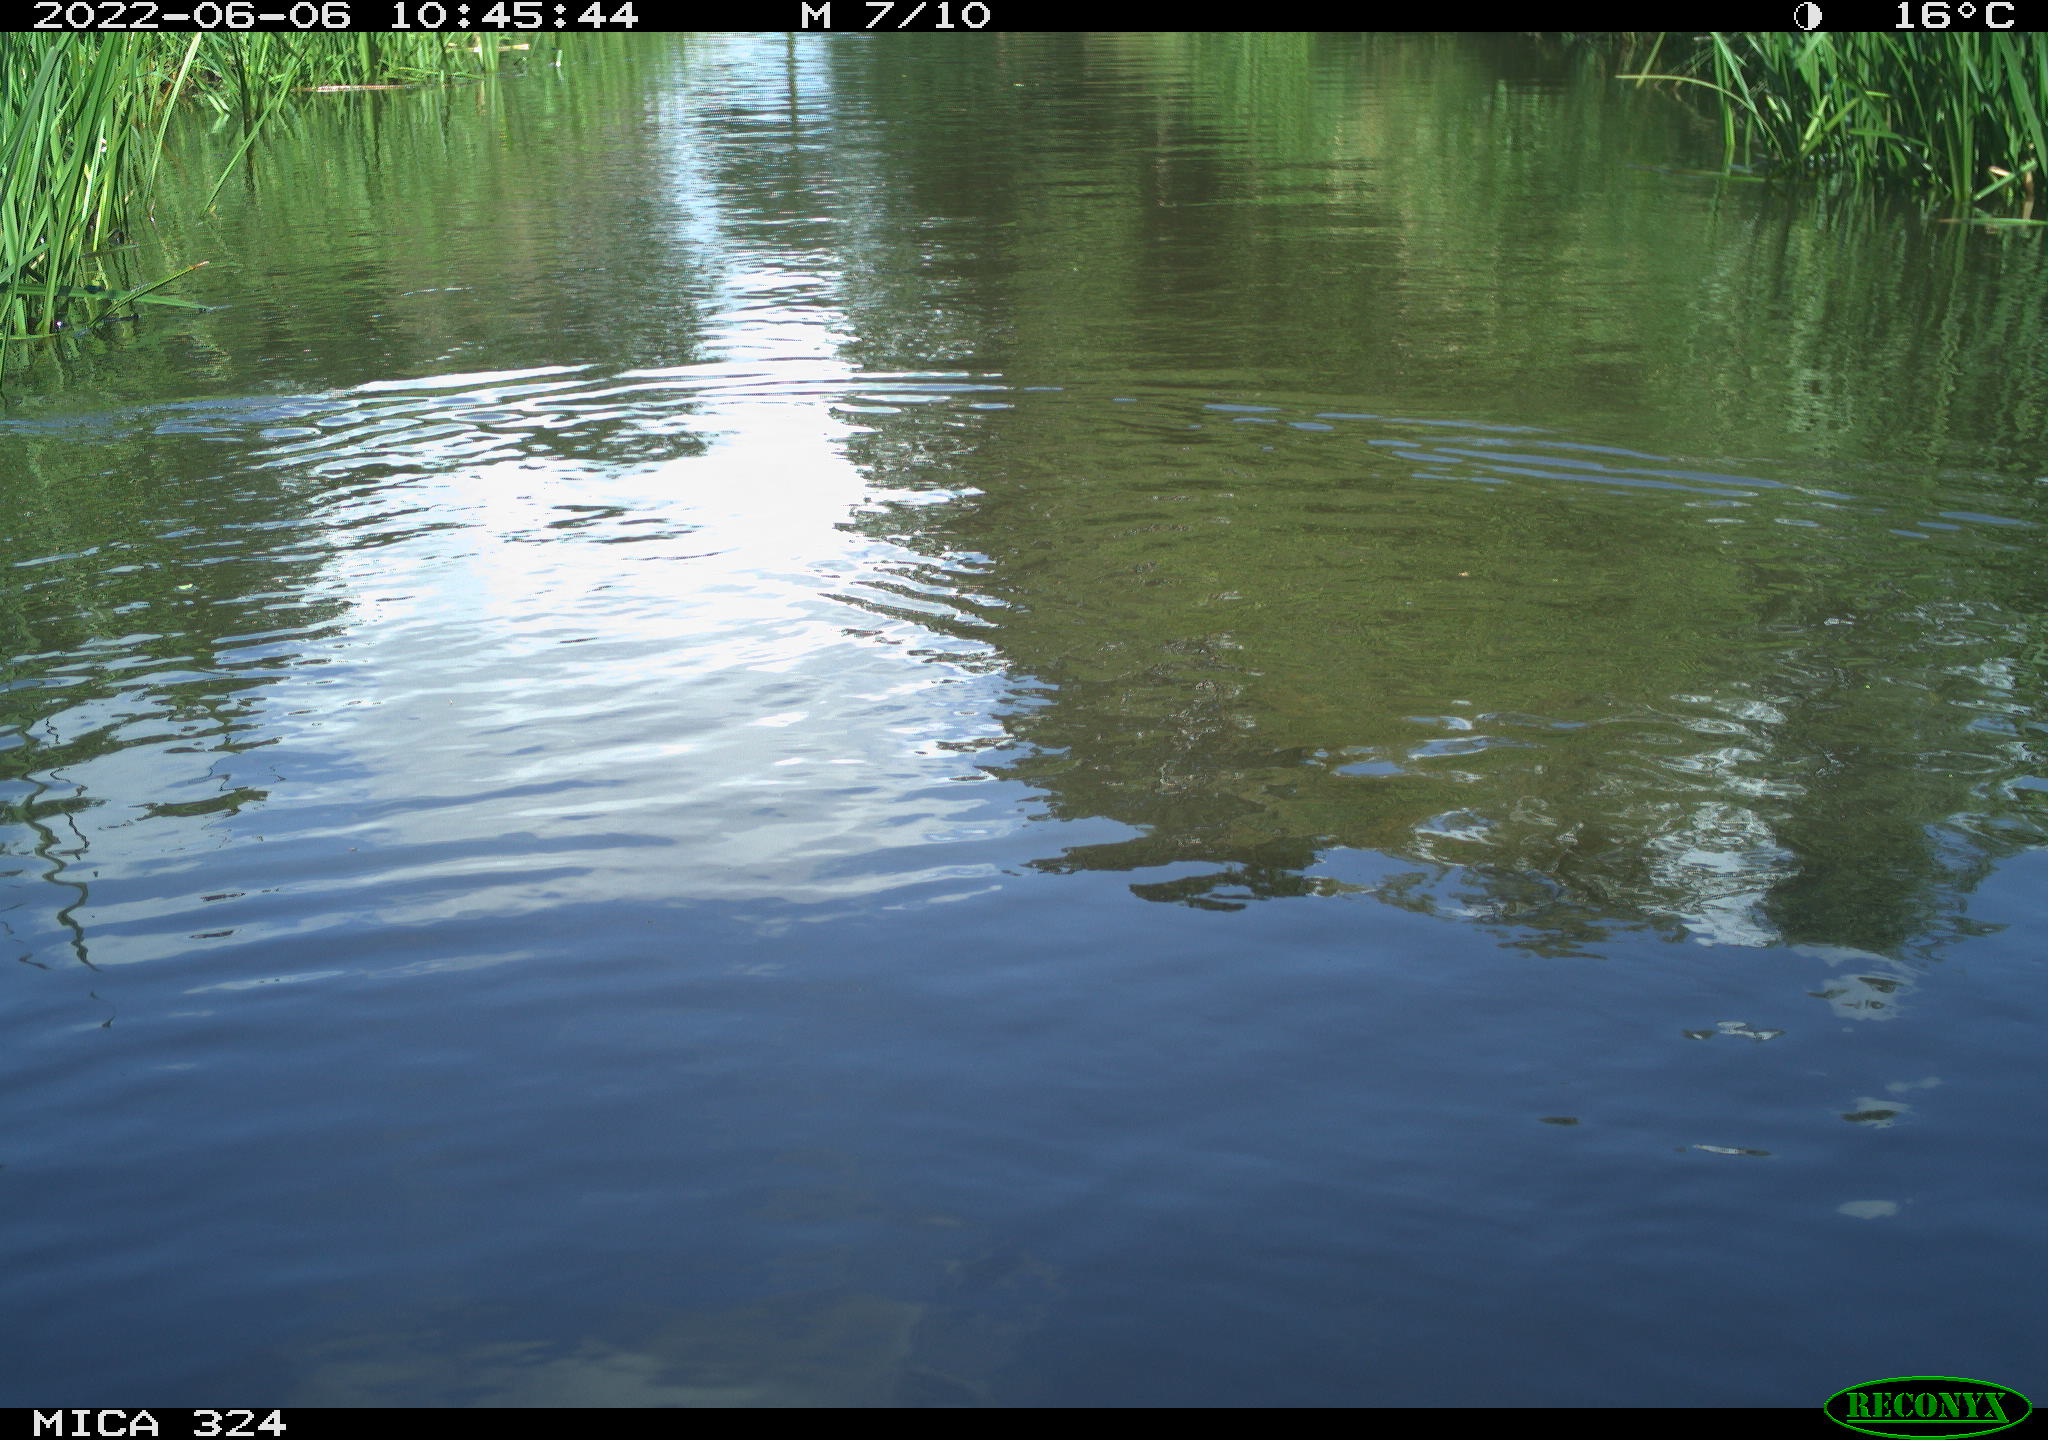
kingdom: Animalia
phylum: Chordata
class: Mammalia
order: Rodentia
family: Cricetidae
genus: Ondatra
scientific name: Ondatra zibethicus
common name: Muskrat
